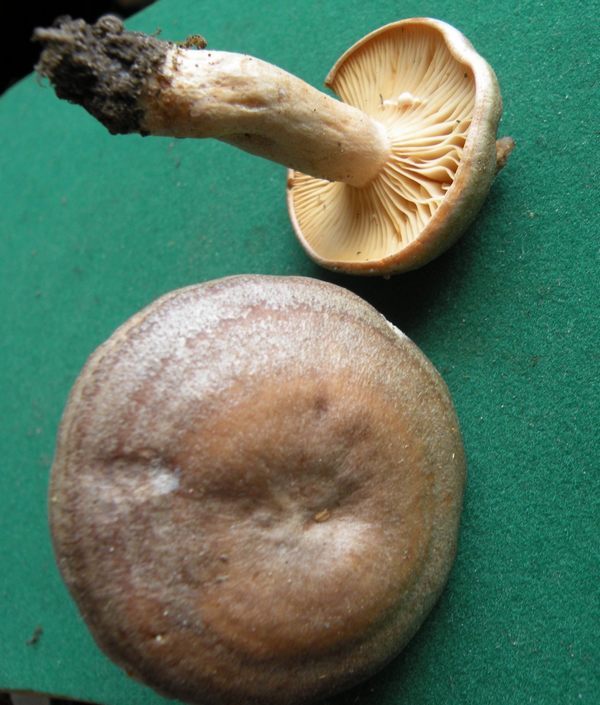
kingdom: Fungi
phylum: Basidiomycota
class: Agaricomycetes
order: Russulales
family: Russulaceae
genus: Lactarius
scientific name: Lactarius pyrogalus
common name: hassel-mælkehat
